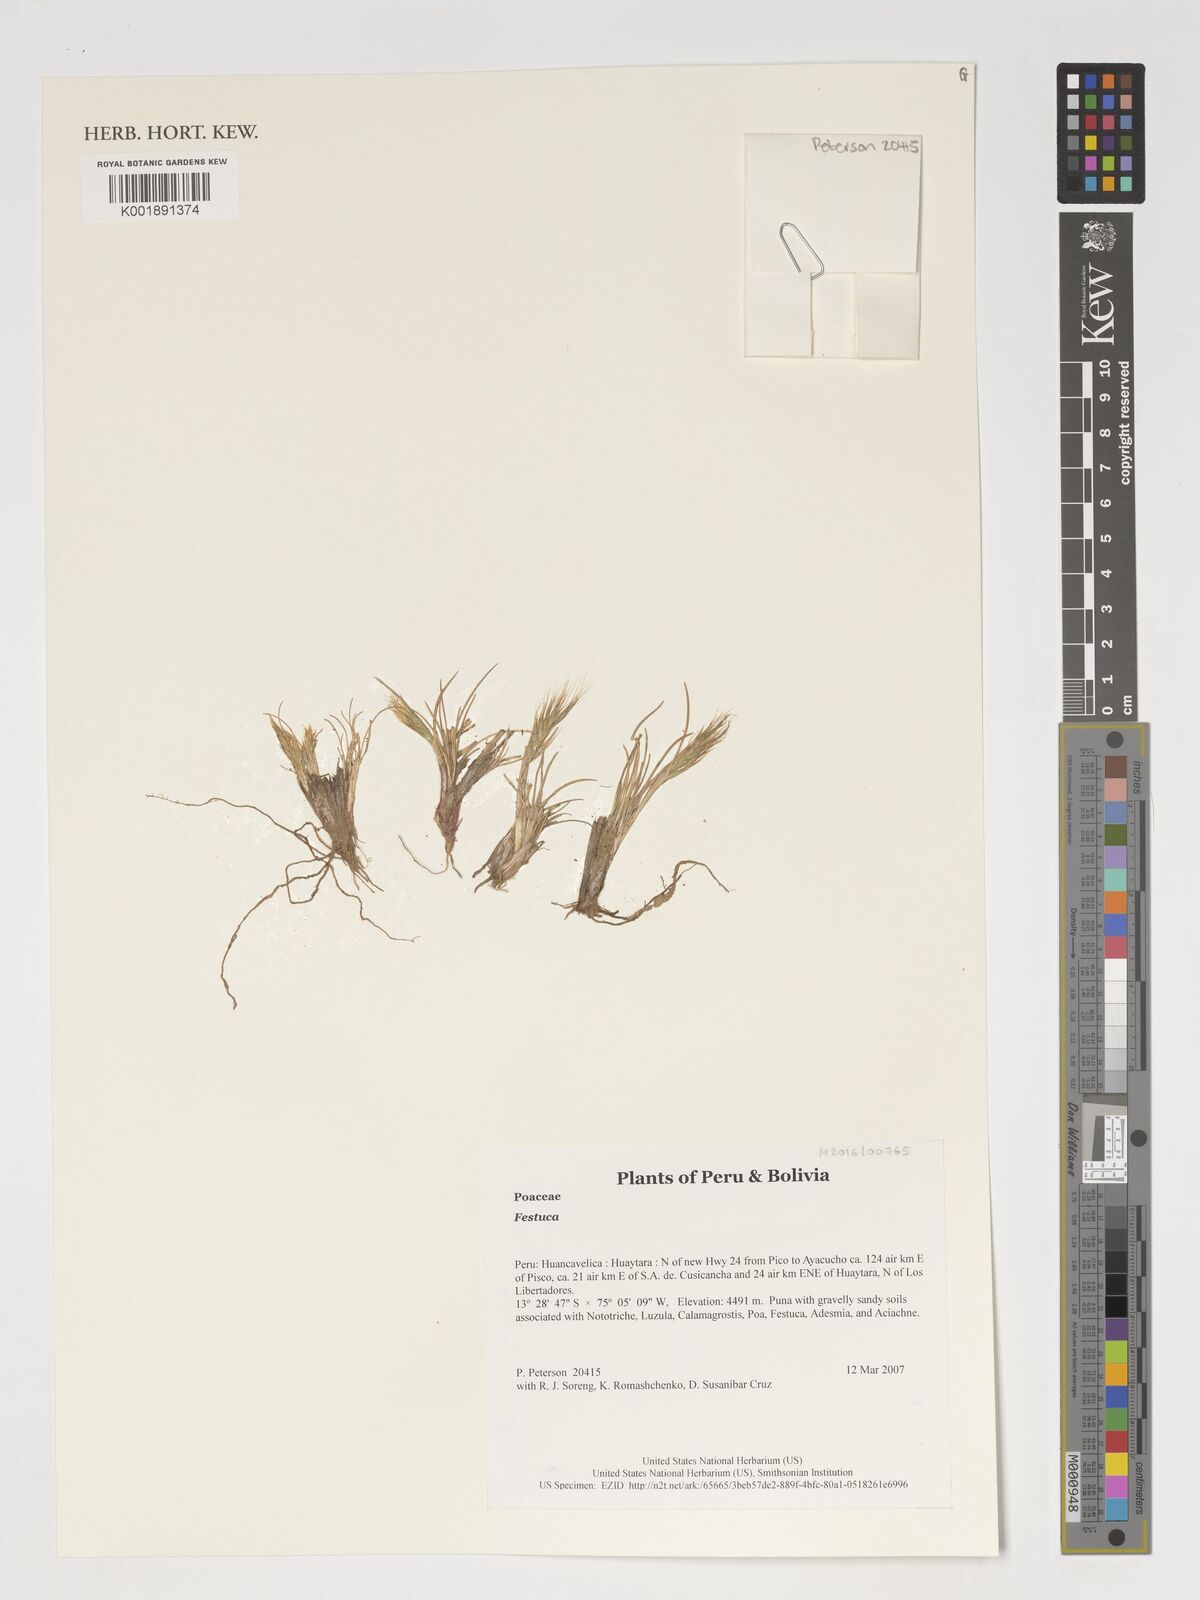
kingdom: Plantae
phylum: Tracheophyta
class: Liliopsida
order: Poales
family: Poaceae
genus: Festuca
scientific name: Festuca
